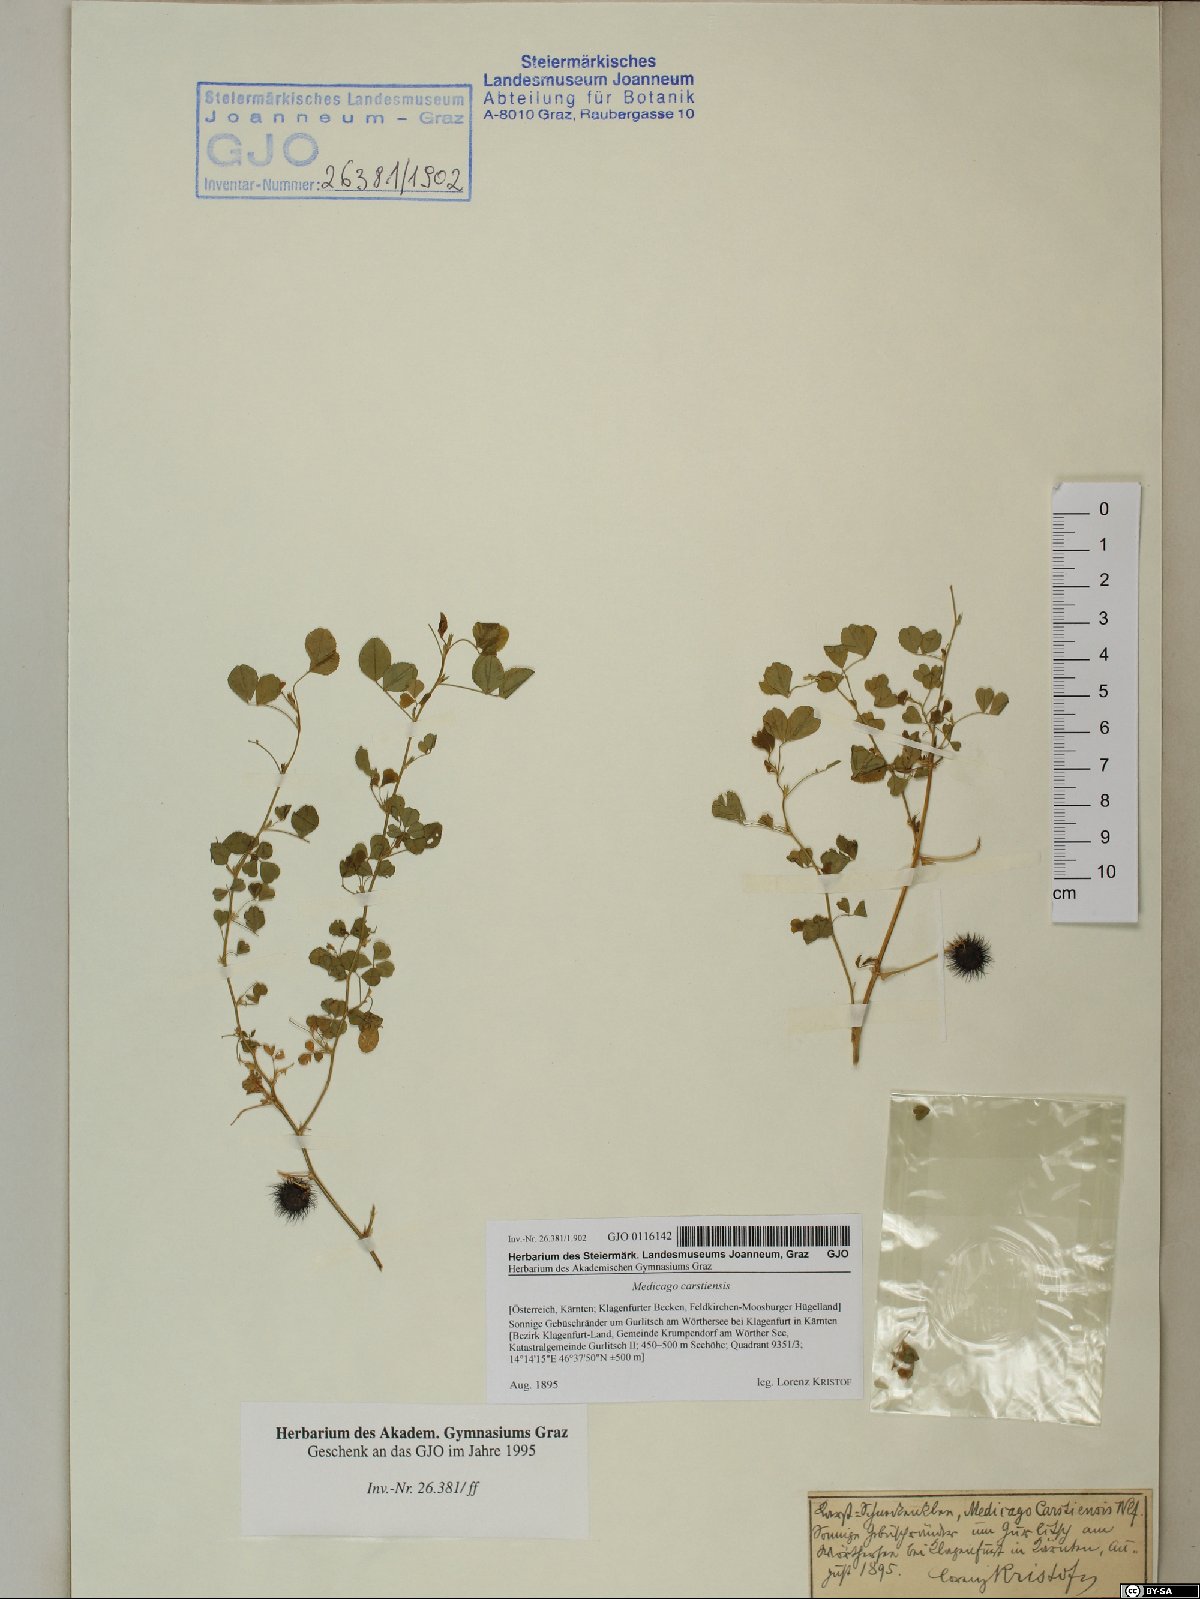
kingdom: Plantae
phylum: Tracheophyta
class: Magnoliopsida
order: Fabales
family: Fabaceae
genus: Medicago
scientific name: Medicago carstiensis
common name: Creeping-rooted medic
